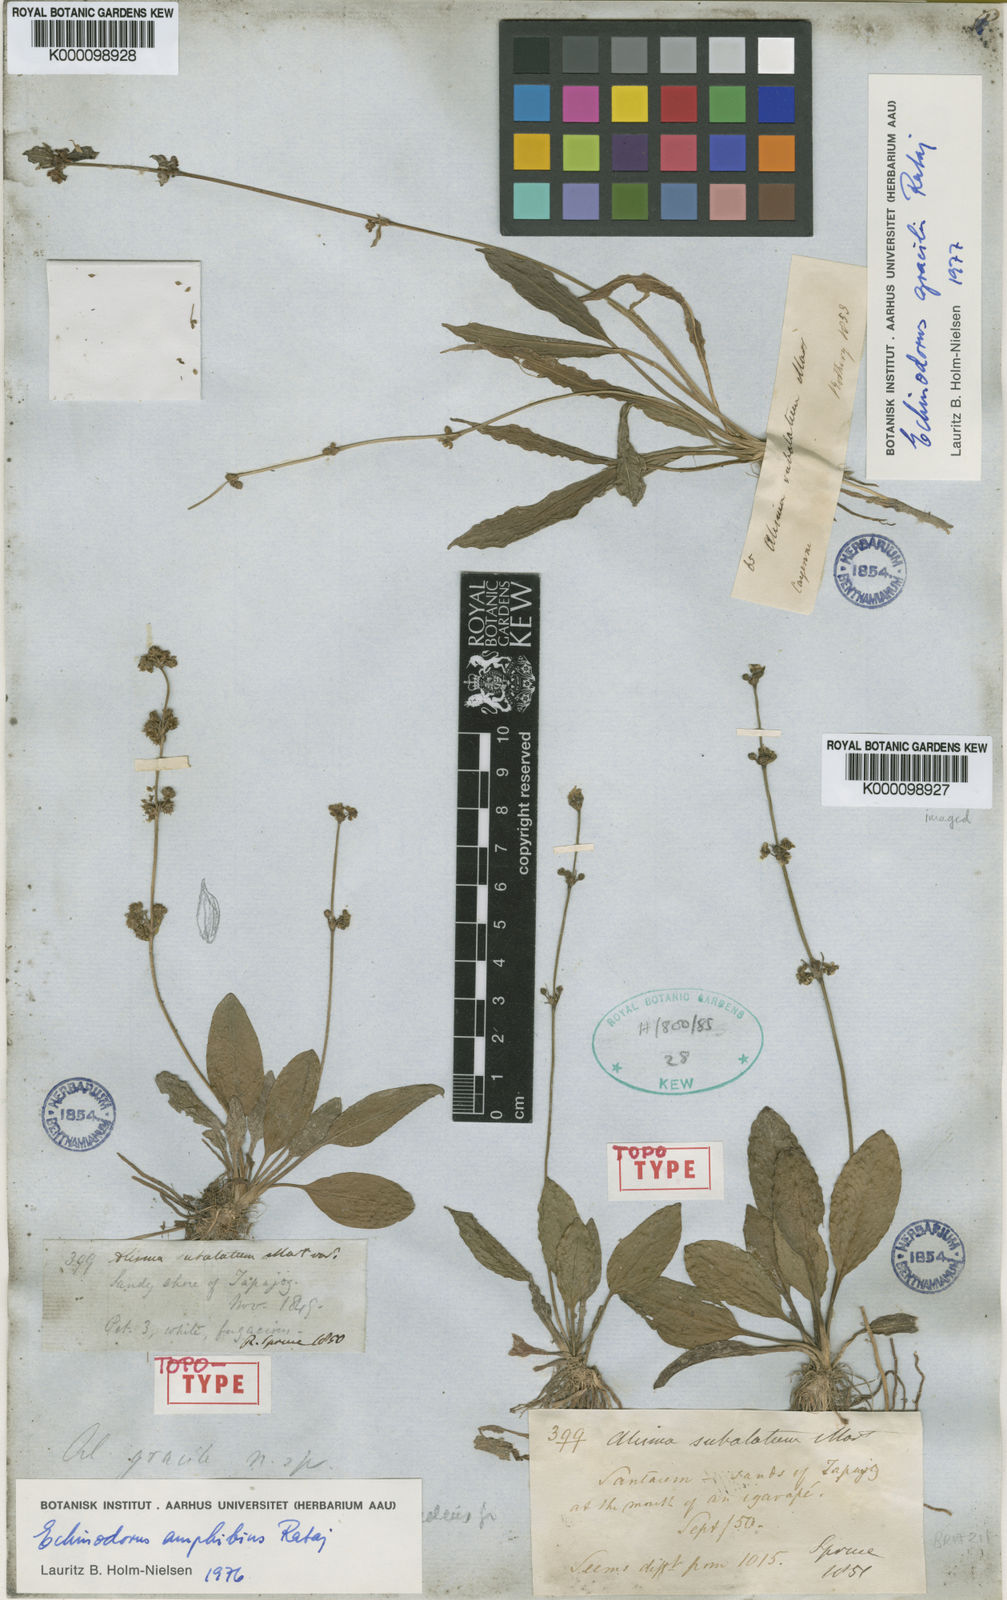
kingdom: Plantae
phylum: Tracheophyta
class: Liliopsida
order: Alismatales
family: Alismataceae
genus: Aquarius
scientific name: Aquarius grisebachii
